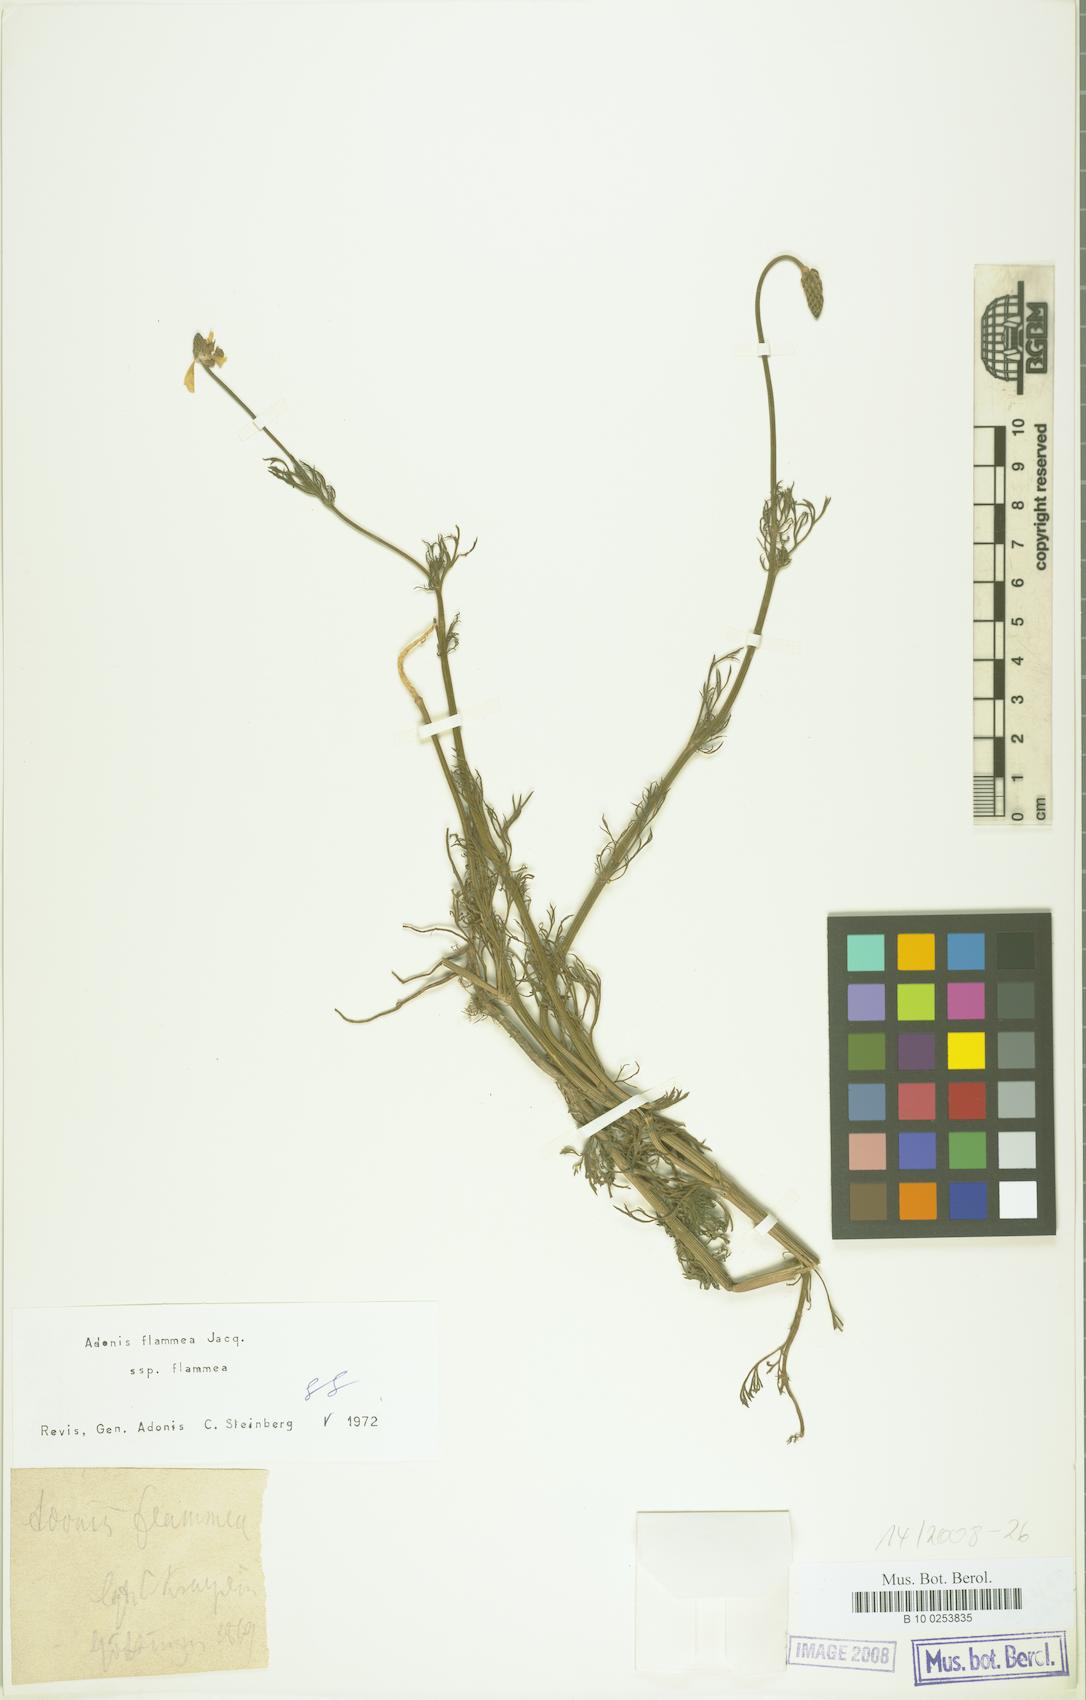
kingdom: Plantae
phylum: Tracheophyta
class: Magnoliopsida
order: Ranunculales
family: Ranunculaceae
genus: Adonis
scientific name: Adonis flammea
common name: Large pheasant's-eye
